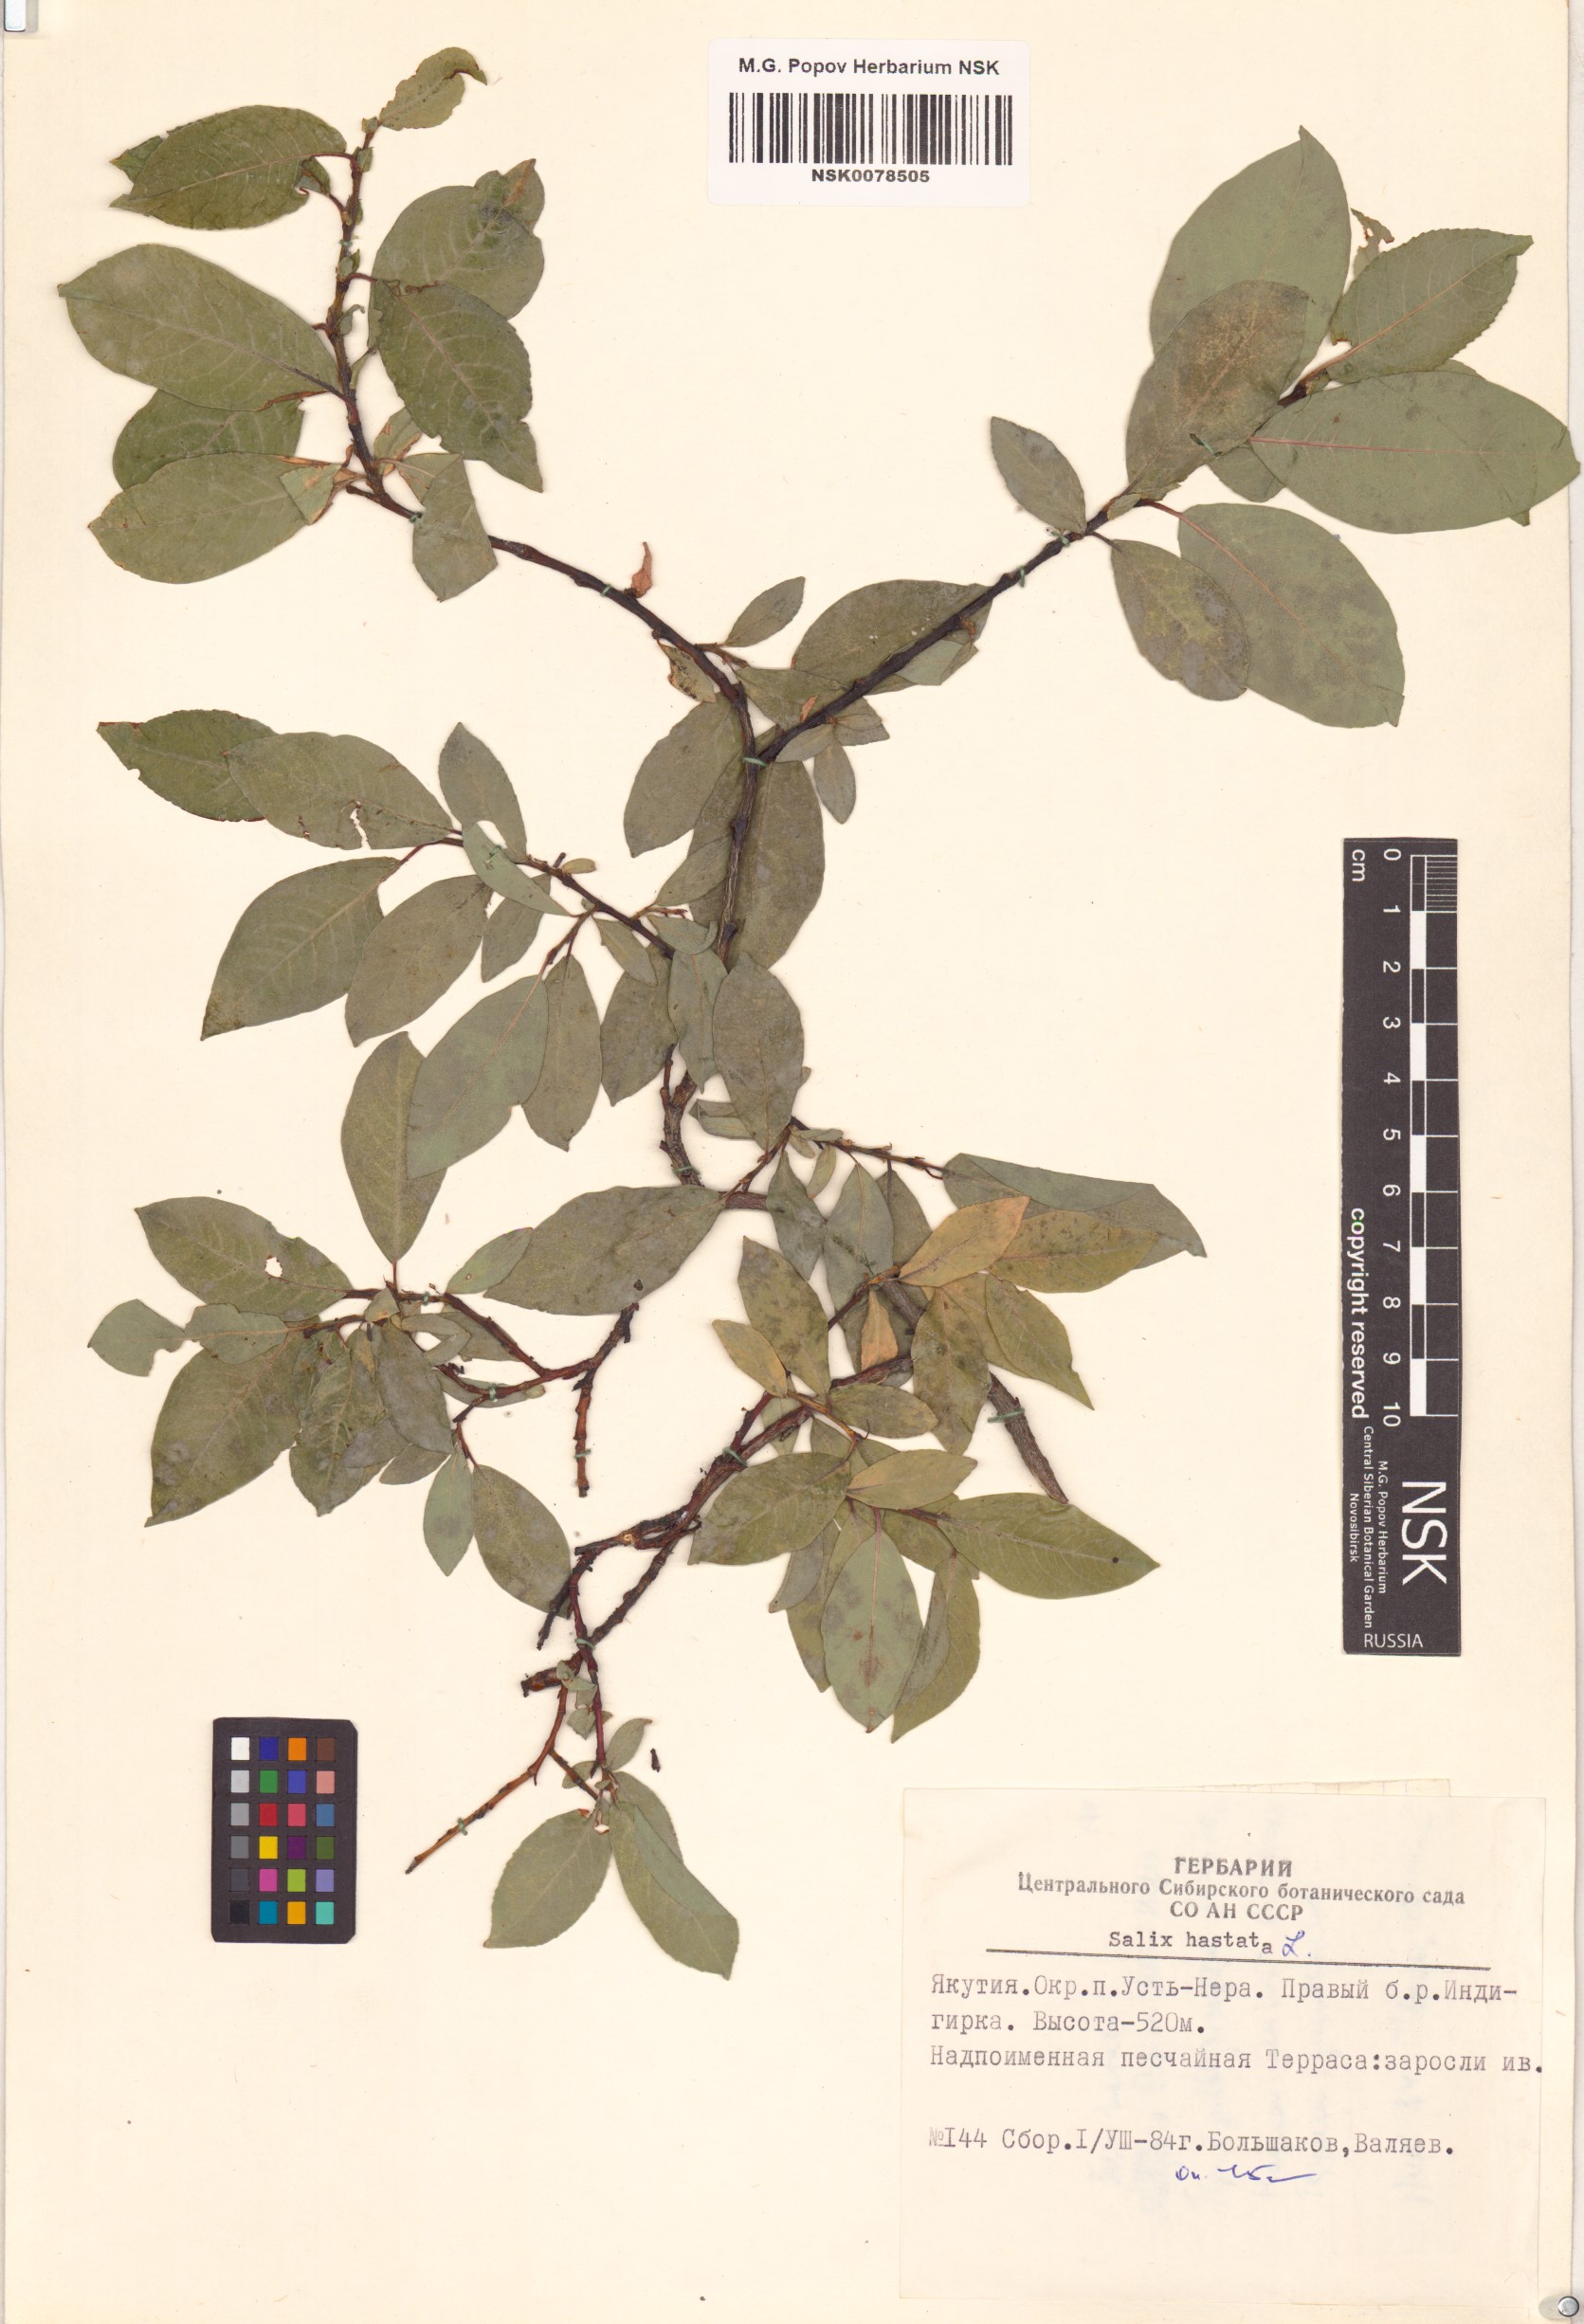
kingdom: Plantae
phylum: Tracheophyta
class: Magnoliopsida
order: Malpighiales
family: Salicaceae
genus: Salix
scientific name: Salix hastata
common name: Halberd willow
